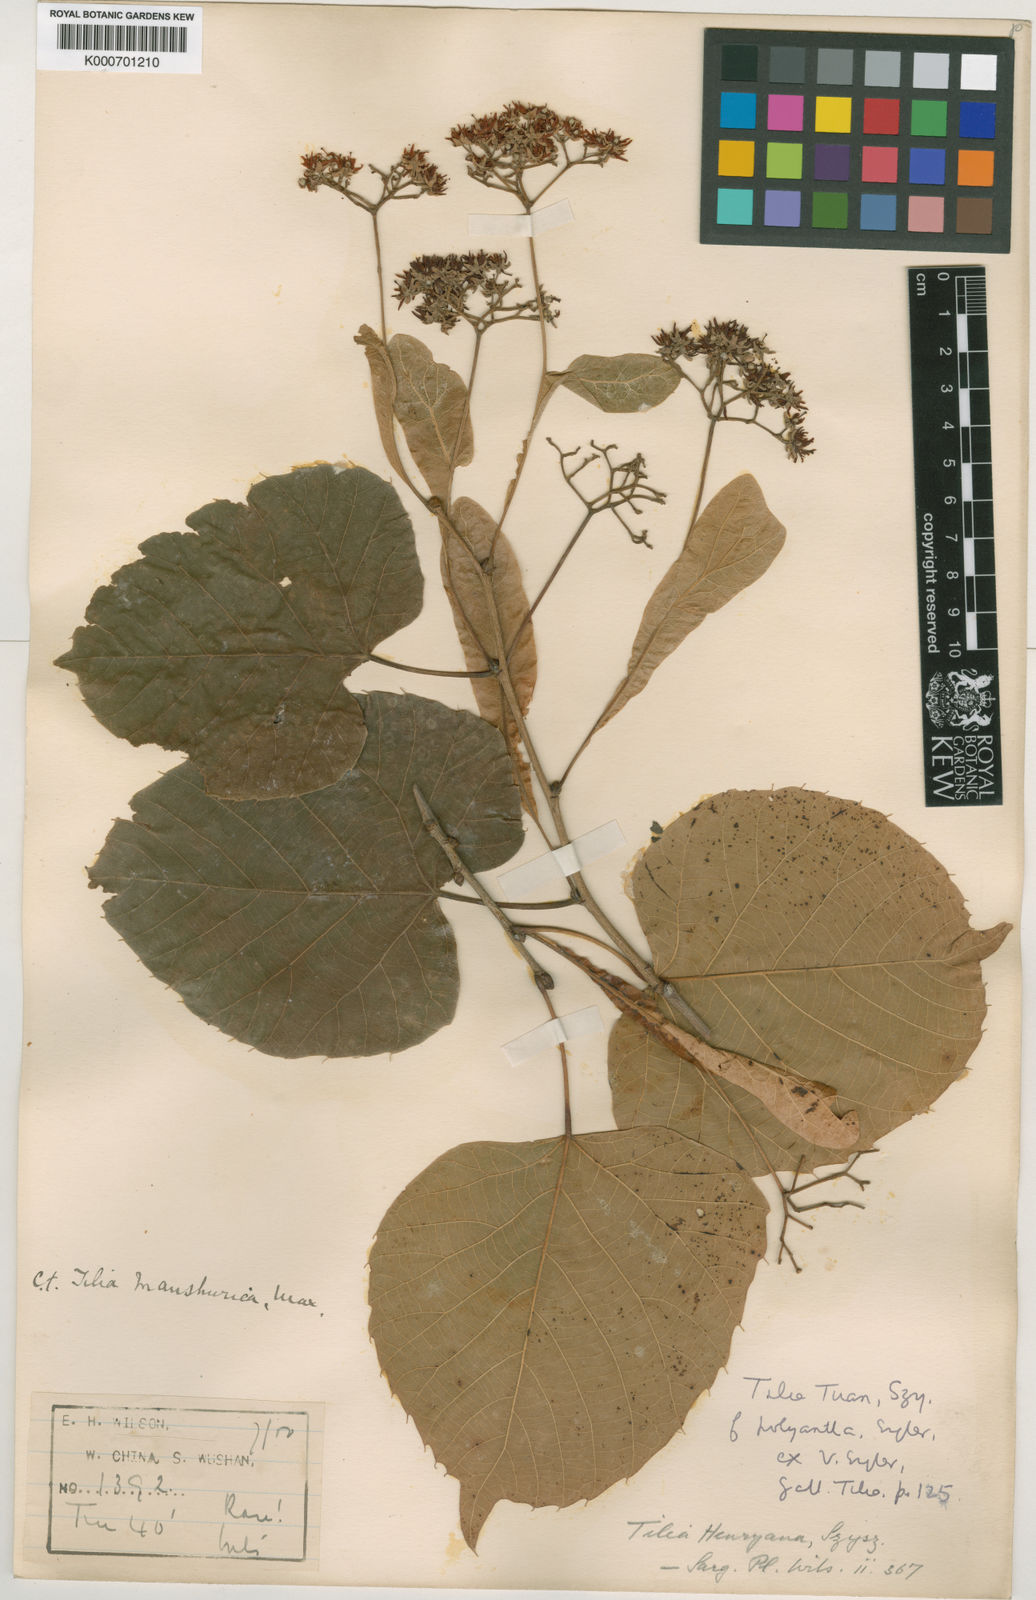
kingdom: Plantae
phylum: Tracheophyta
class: Magnoliopsida
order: Malvales
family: Malvaceae
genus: Tilia
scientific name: Tilia henryana
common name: Henry's lime
